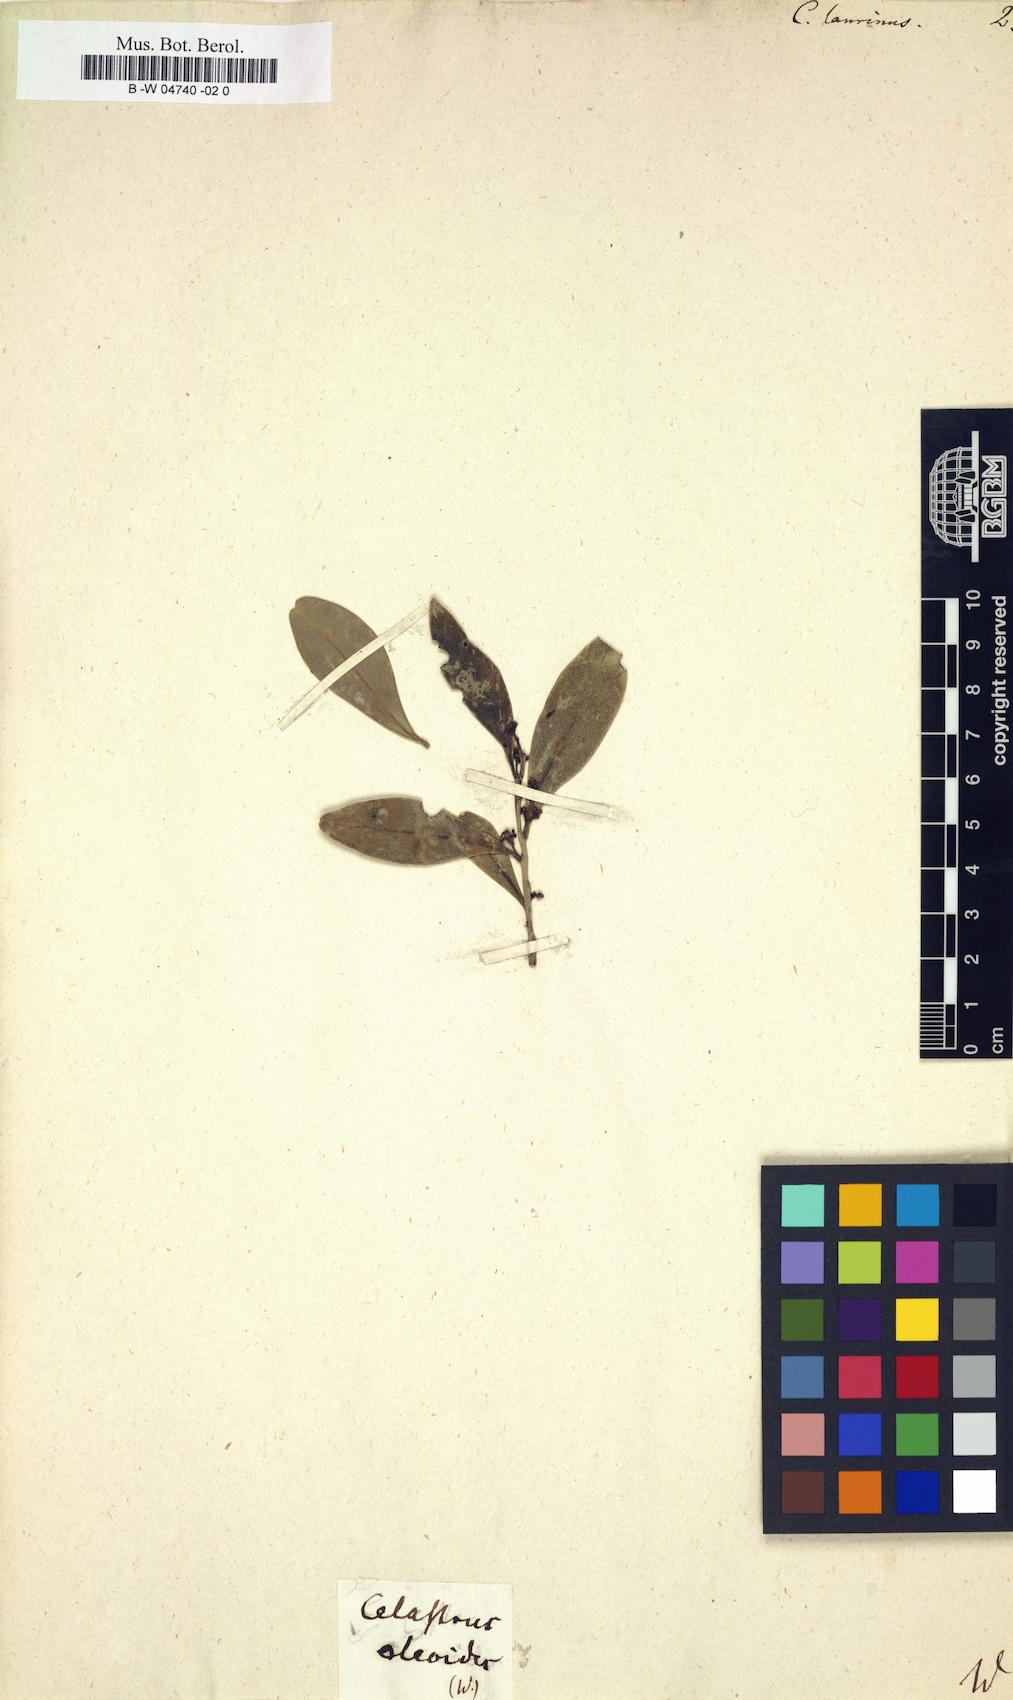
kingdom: Plantae
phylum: Tracheophyta
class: Magnoliopsida
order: Celastrales
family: Celastraceae
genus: Gymnosporia
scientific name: Gymnosporia laurina
